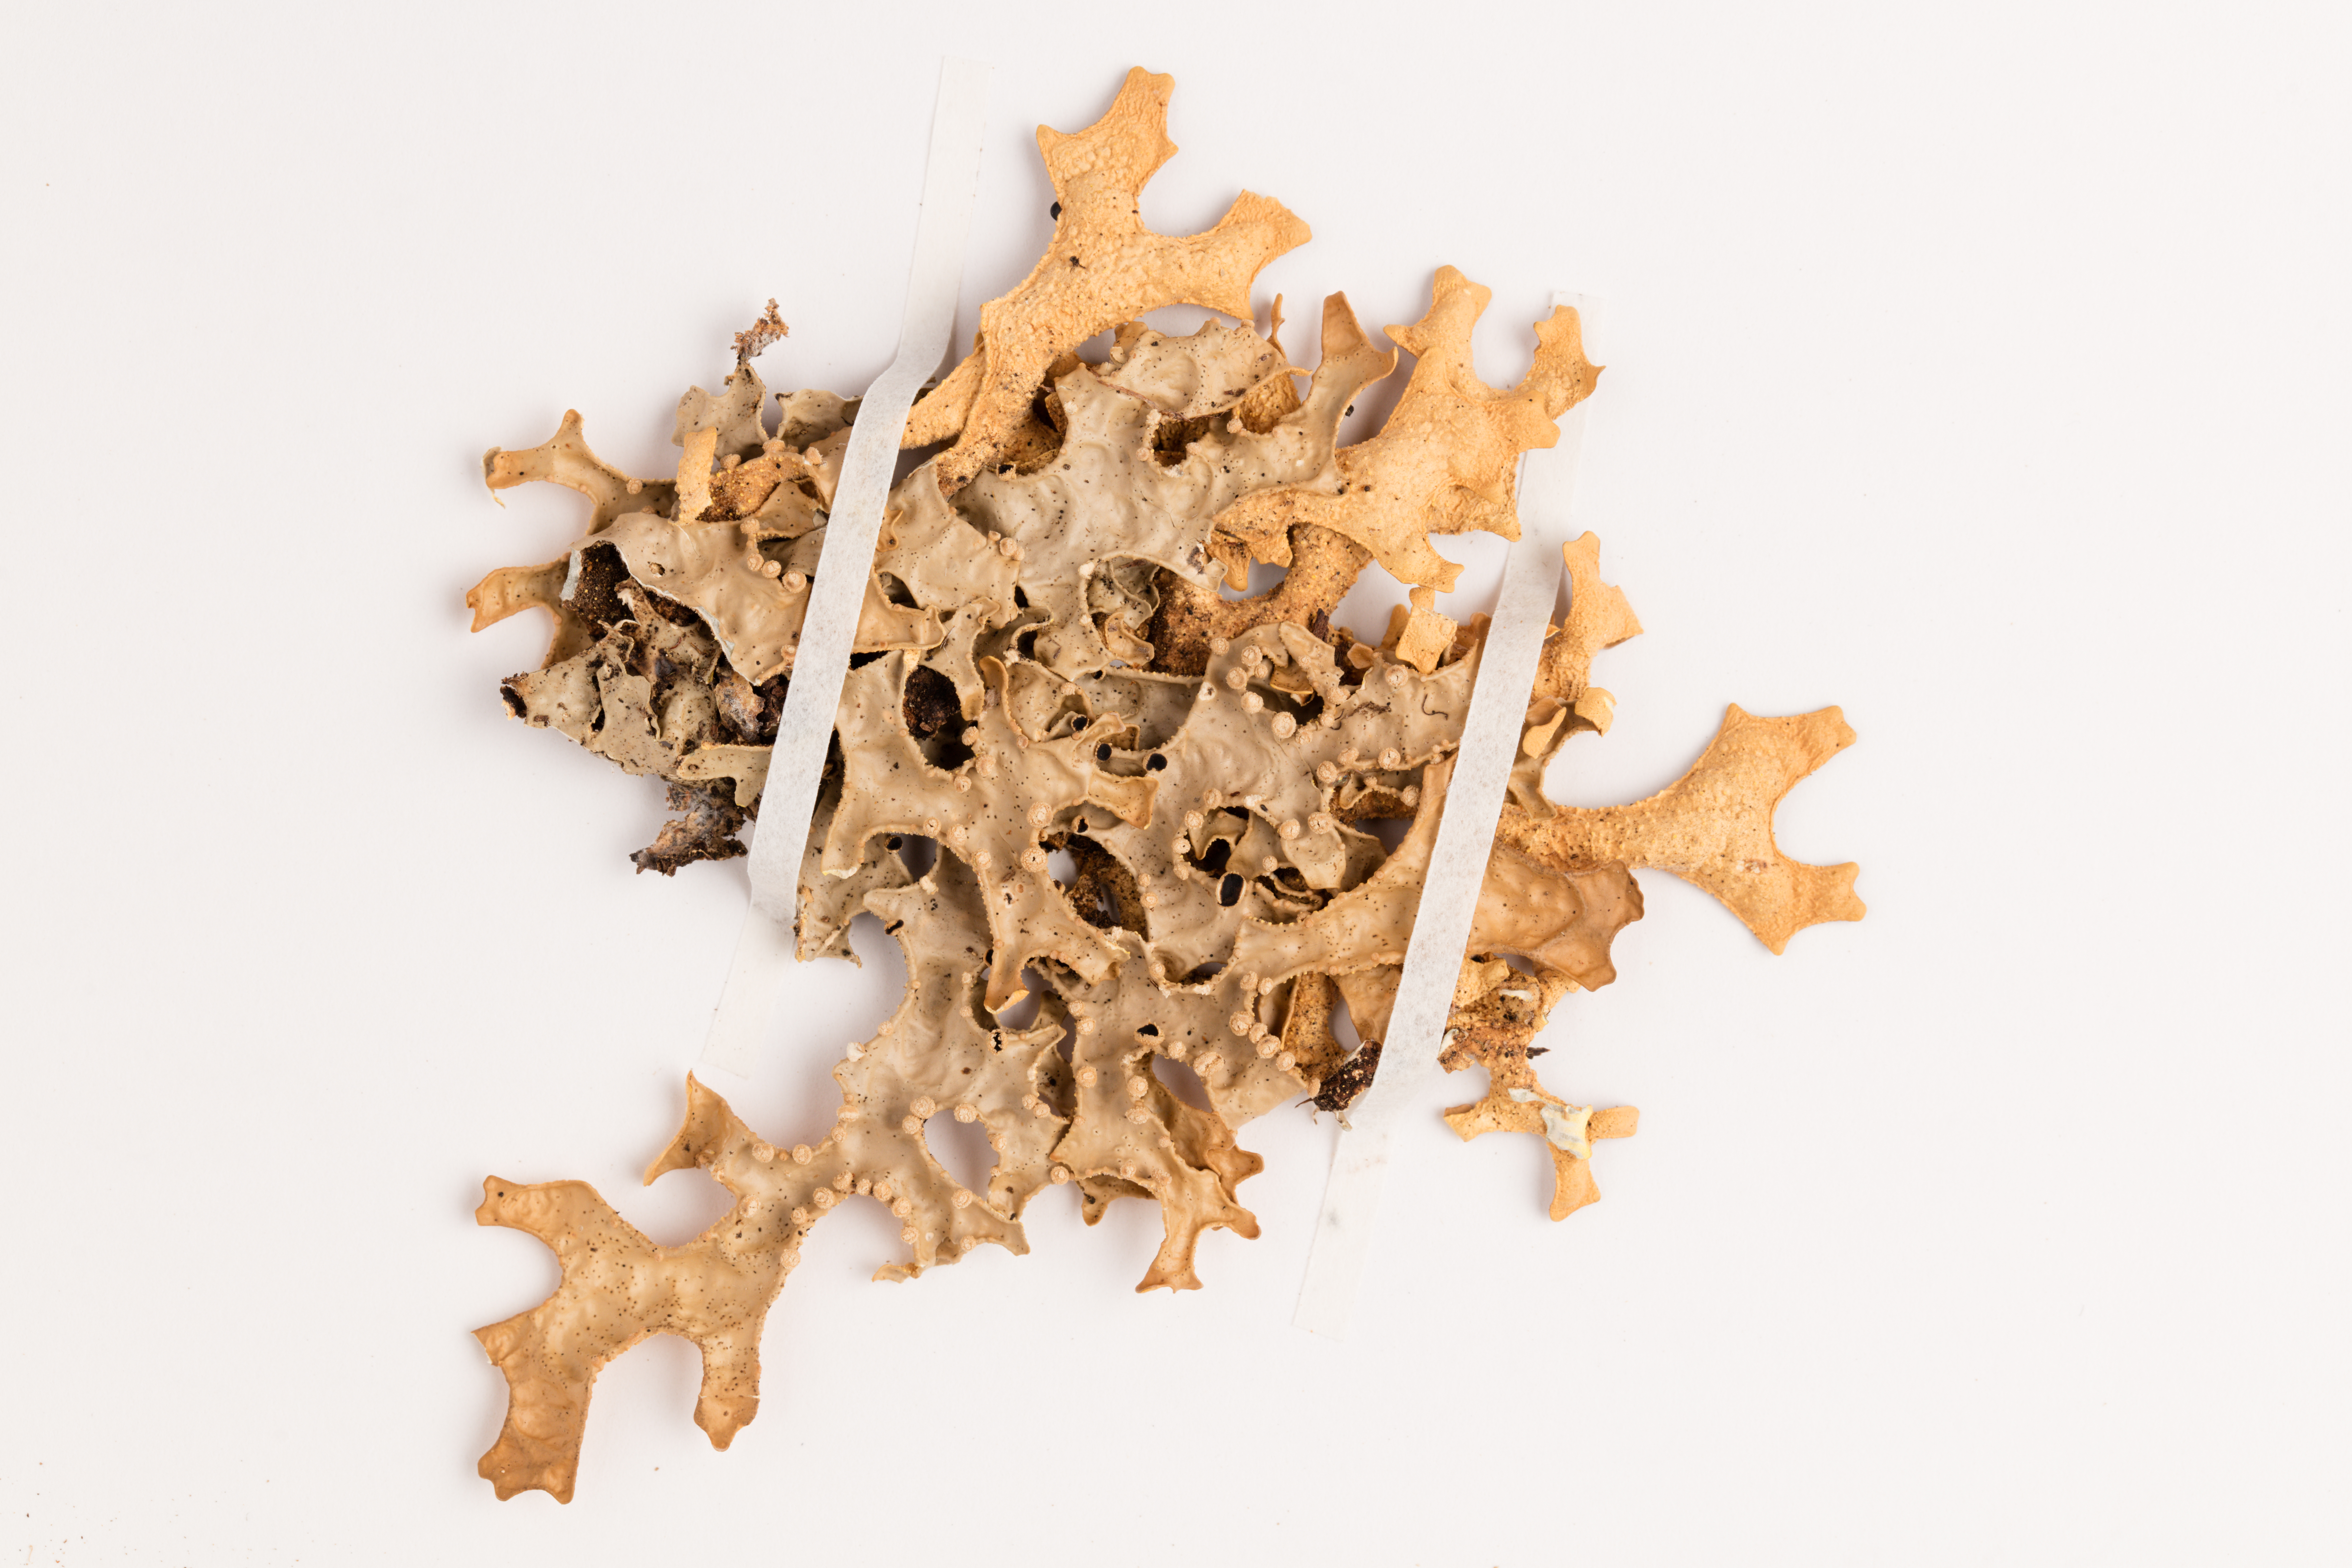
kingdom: Fungi
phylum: Ascomycota
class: Lecanoromycetes
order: Peltigerales
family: Lobariaceae
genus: Pseudocyphellaria
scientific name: Pseudocyphellaria carpoloma
